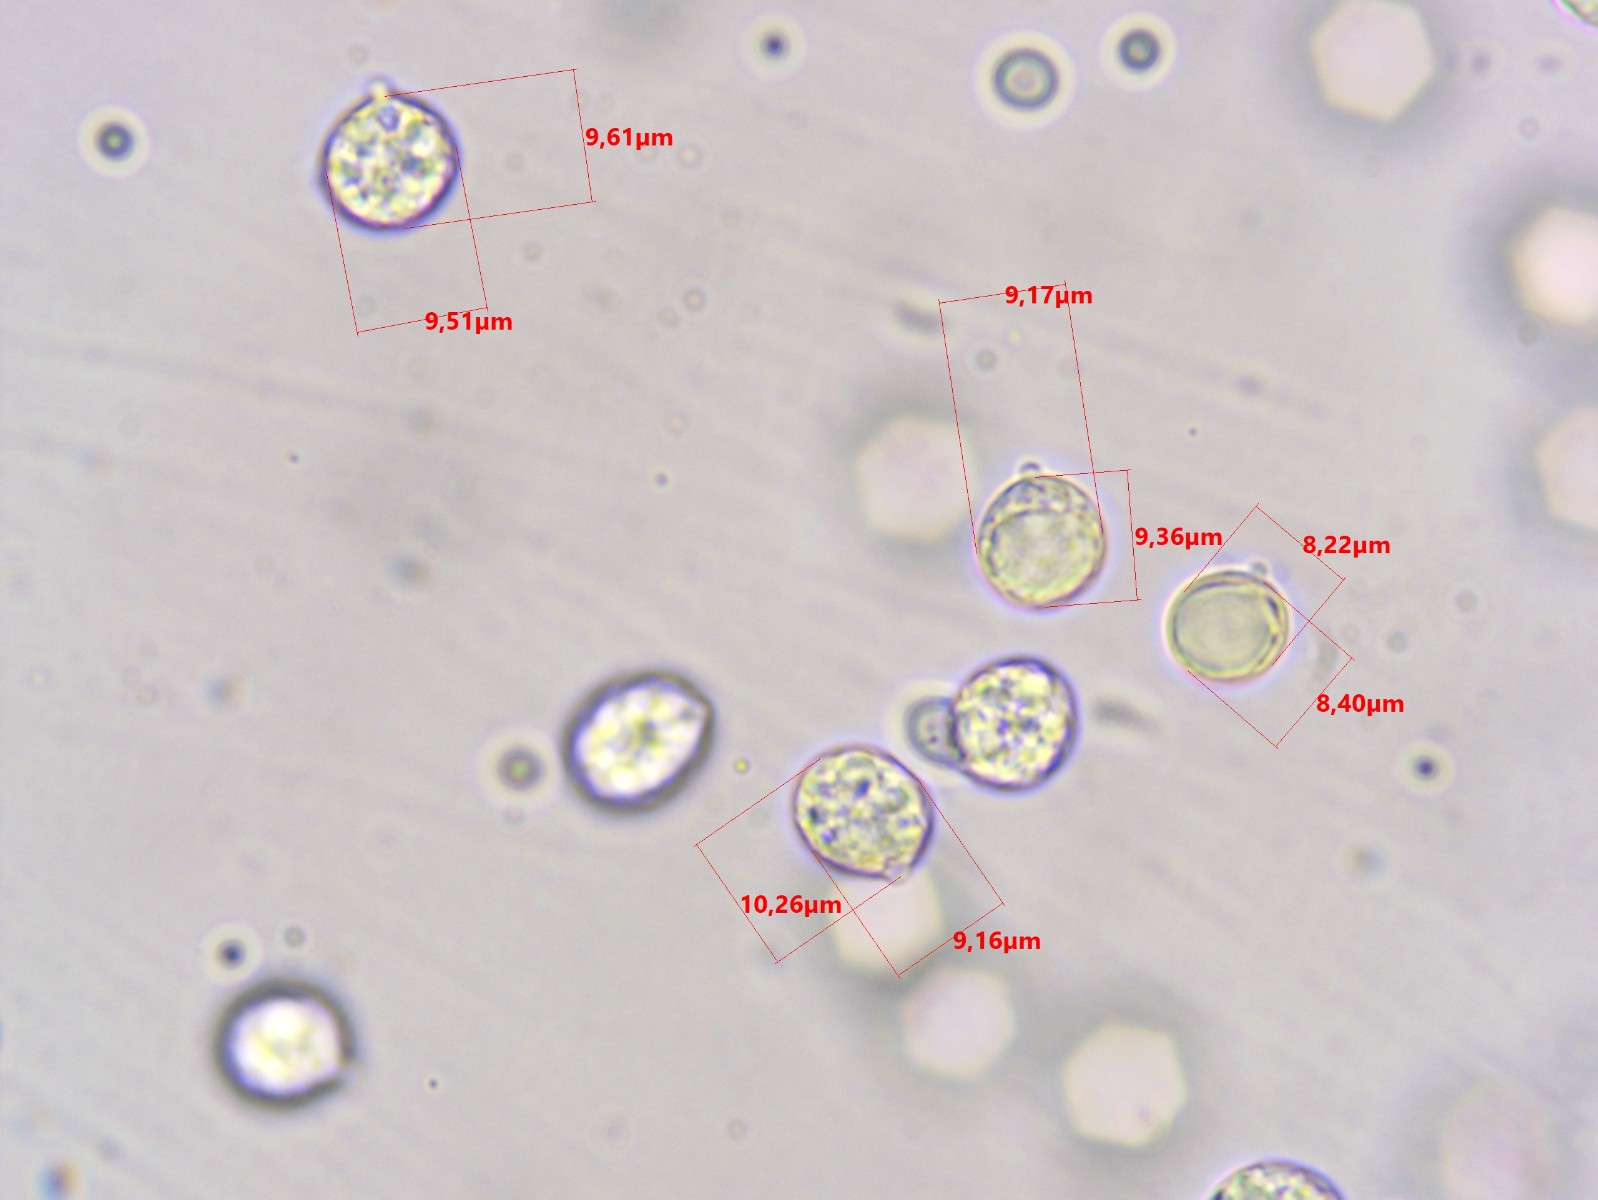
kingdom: Fungi
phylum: Basidiomycota
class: Agaricomycetes
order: Agaricales
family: Amanitaceae
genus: Amanita
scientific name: Amanita huijsmanii
